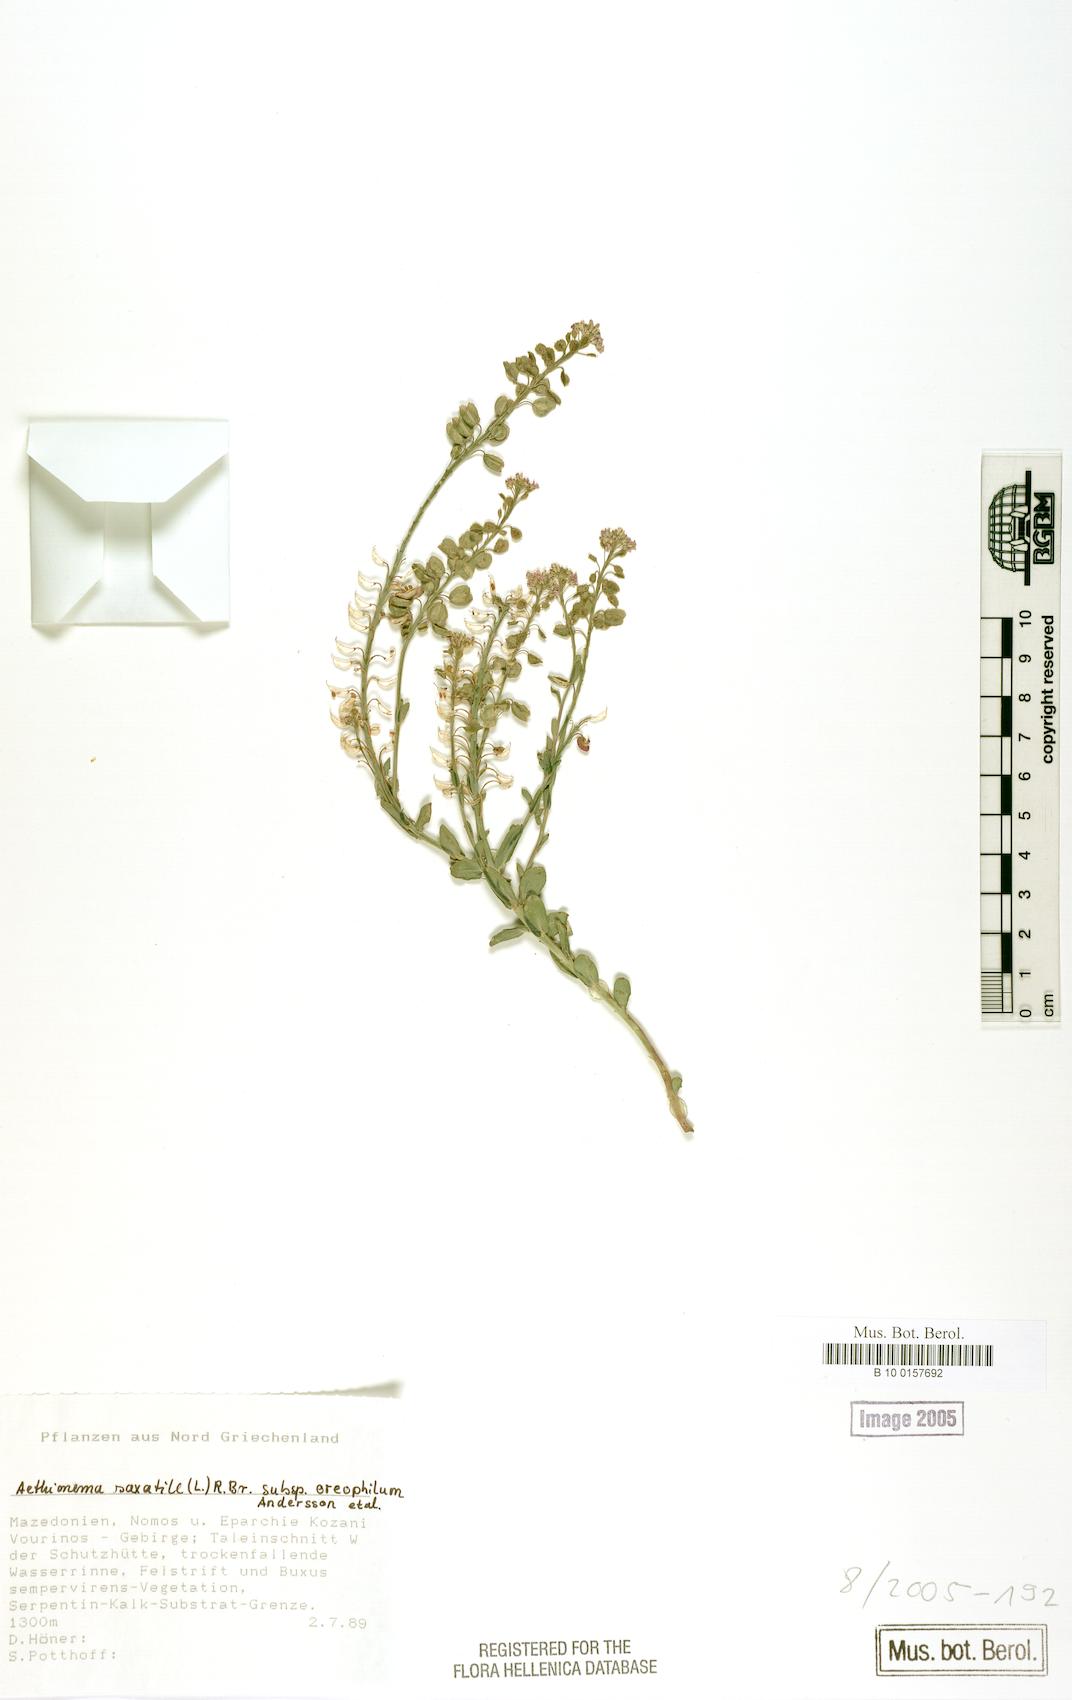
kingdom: Plantae
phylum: Tracheophyta
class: Magnoliopsida
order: Brassicales
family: Brassicaceae
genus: Aethionema
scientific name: Aethionema saxatile
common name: Burnt candytuft
